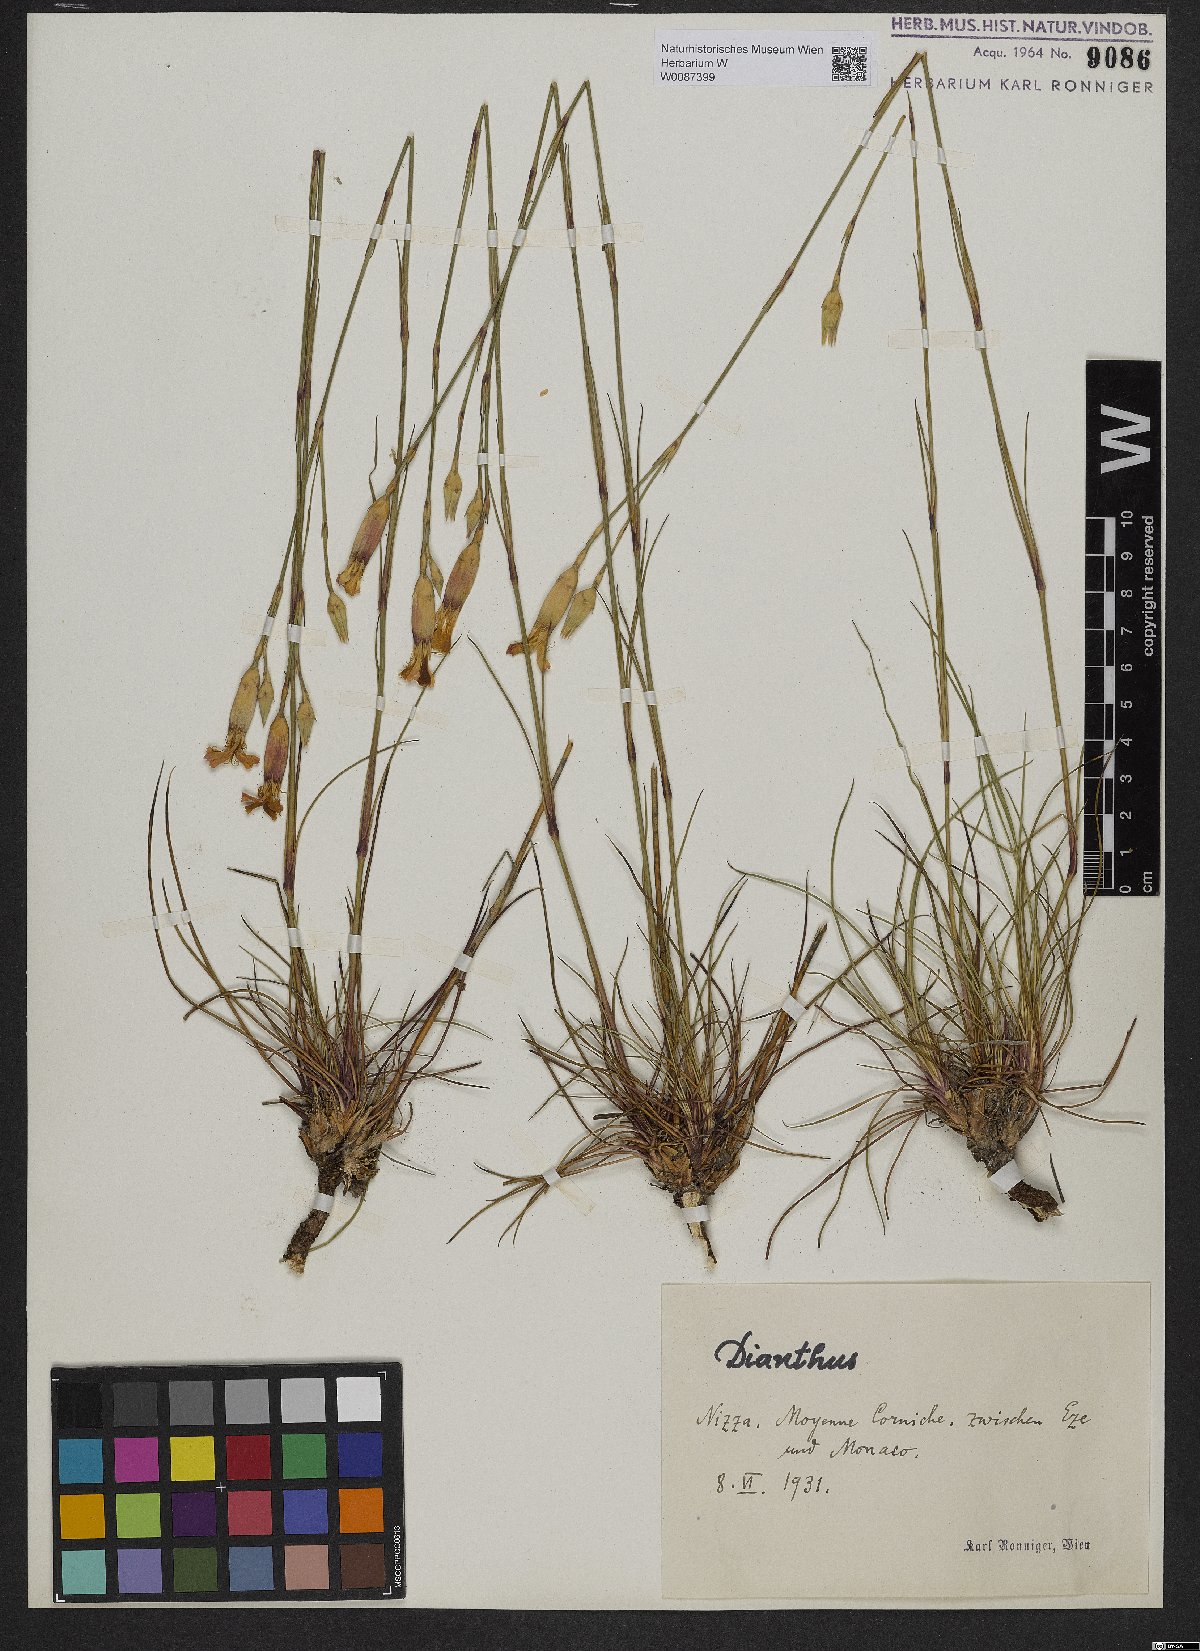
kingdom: Plantae
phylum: Tracheophyta
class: Magnoliopsida
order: Caryophyllales
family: Caryophyllaceae
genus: Dianthus
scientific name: Dianthus
